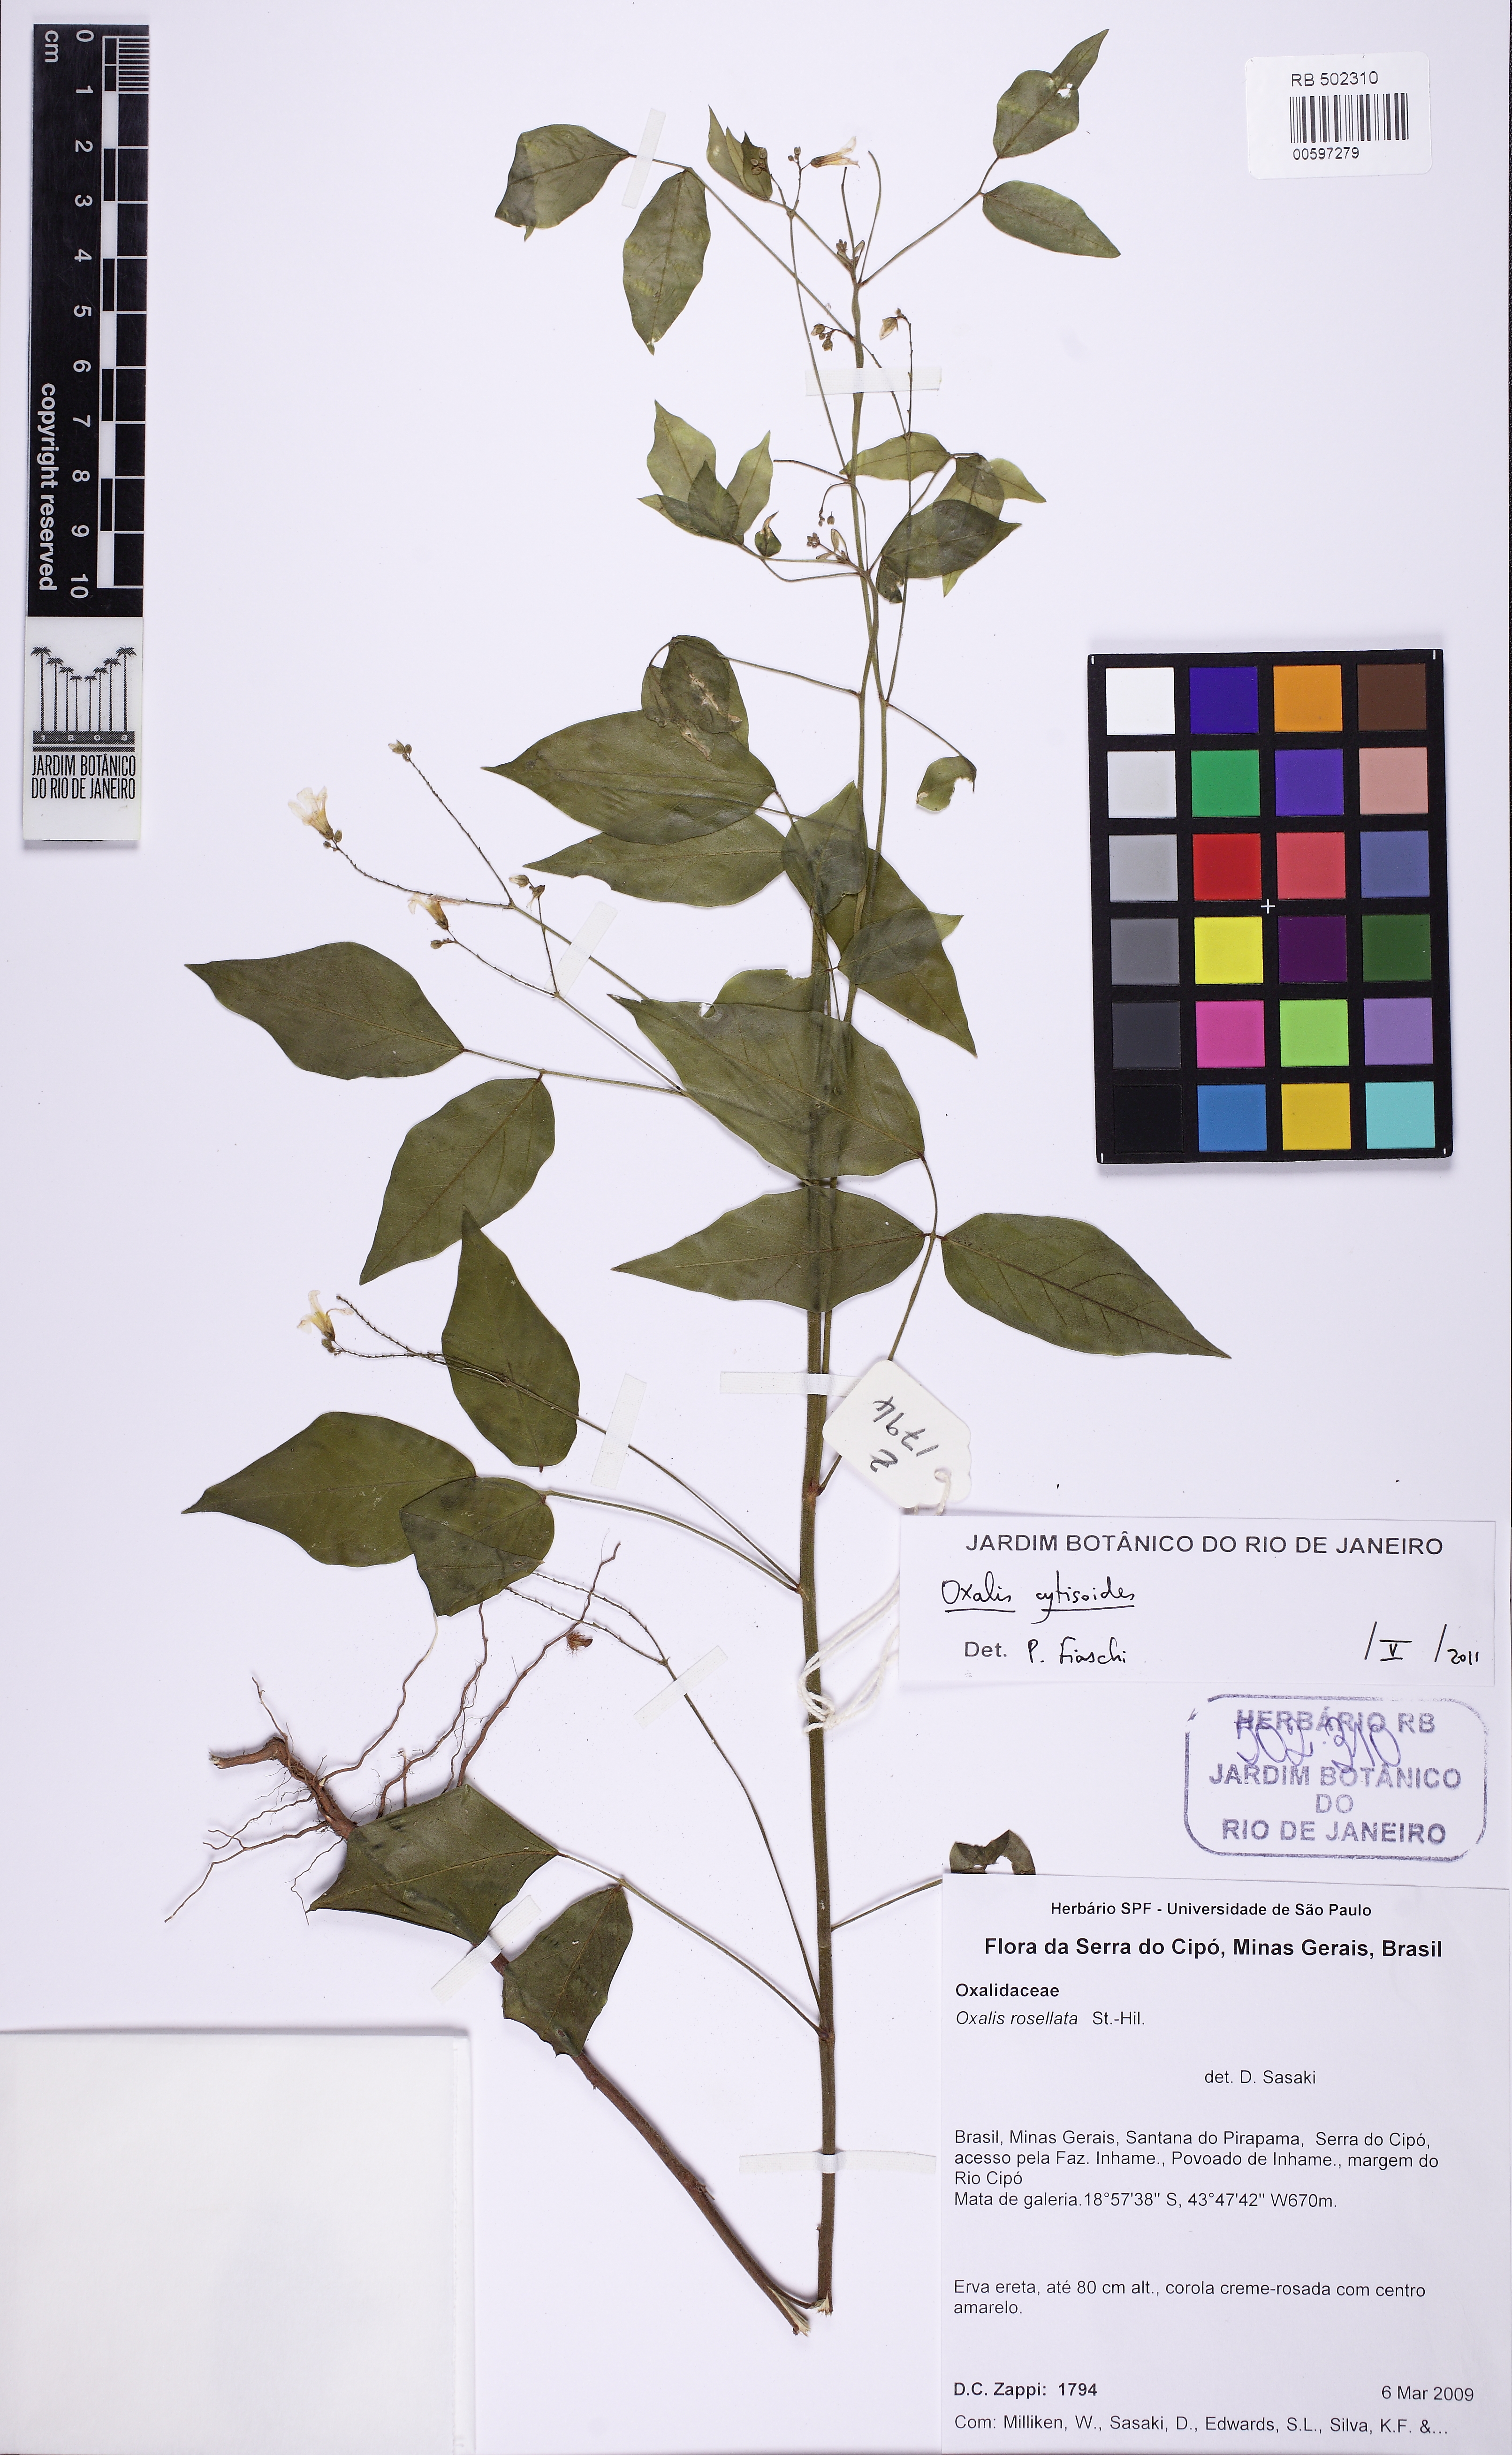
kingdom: Plantae
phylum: Tracheophyta
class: Magnoliopsida
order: Oxalidales
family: Oxalidaceae
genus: Oxalis
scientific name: Oxalis cytisoides
